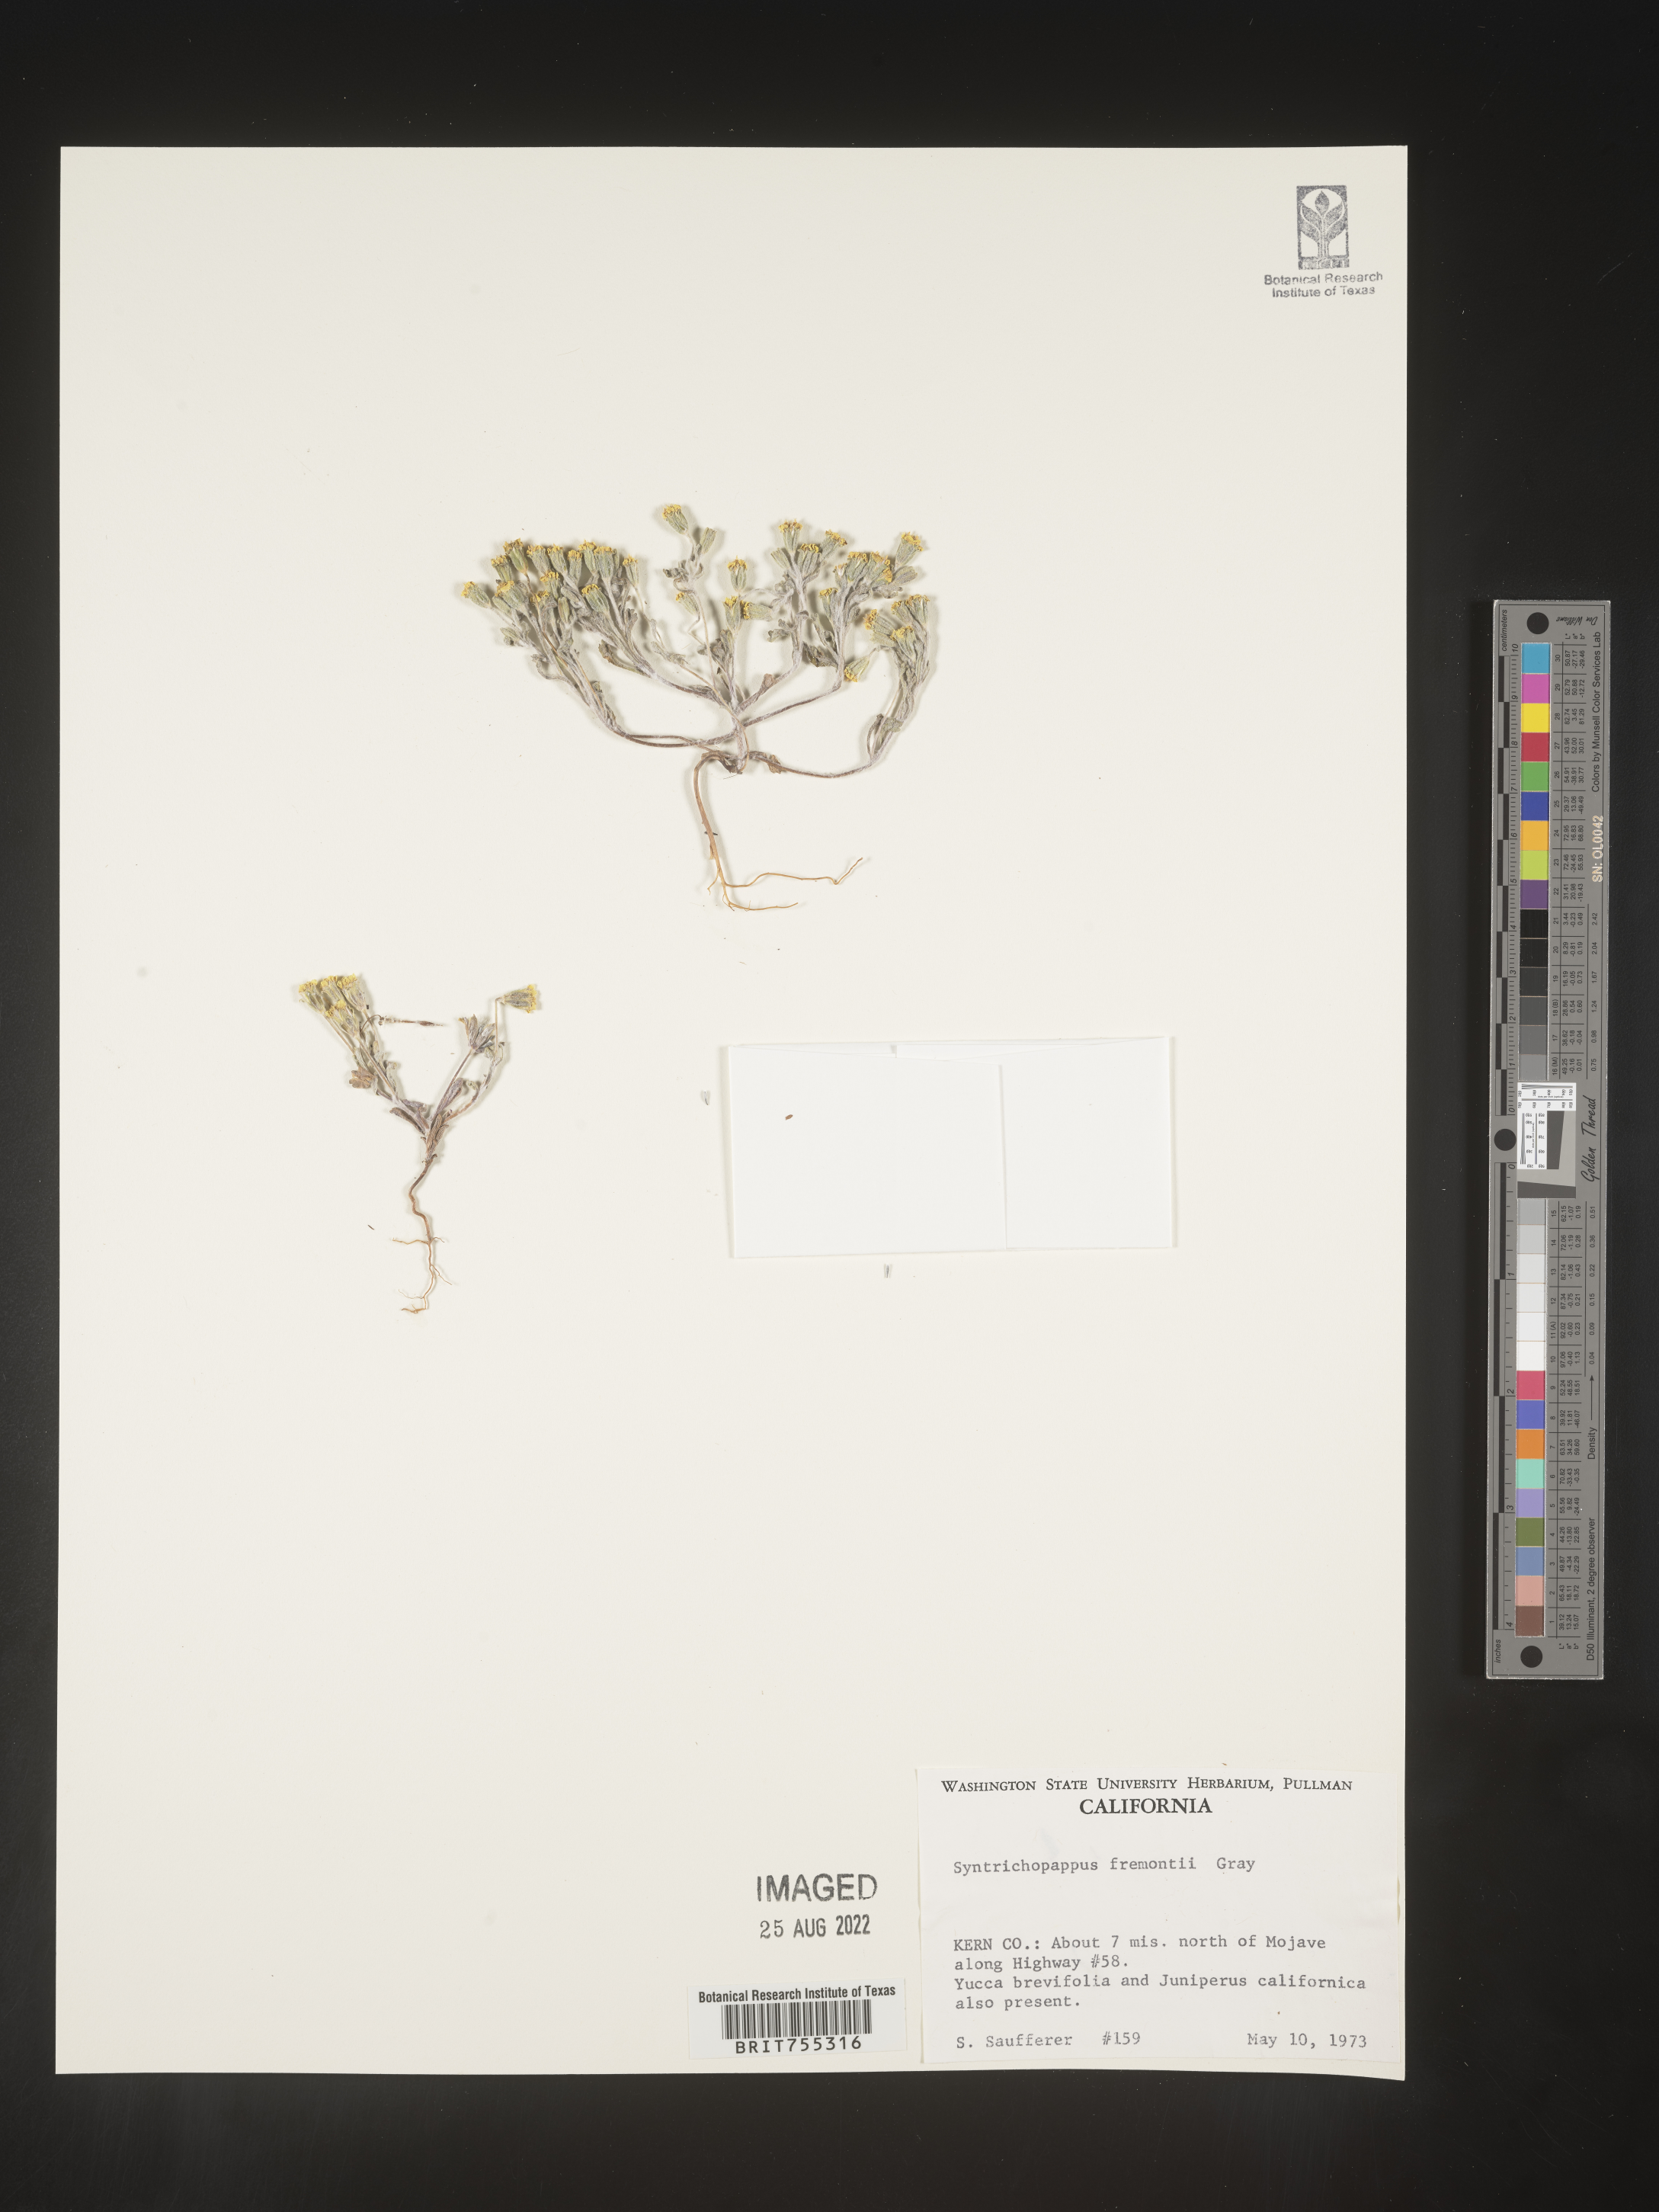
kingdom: Plantae
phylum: Tracheophyta
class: Magnoliopsida
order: Asterales
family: Asteraceae
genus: Syntrichopappus
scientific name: Syntrichopappus
